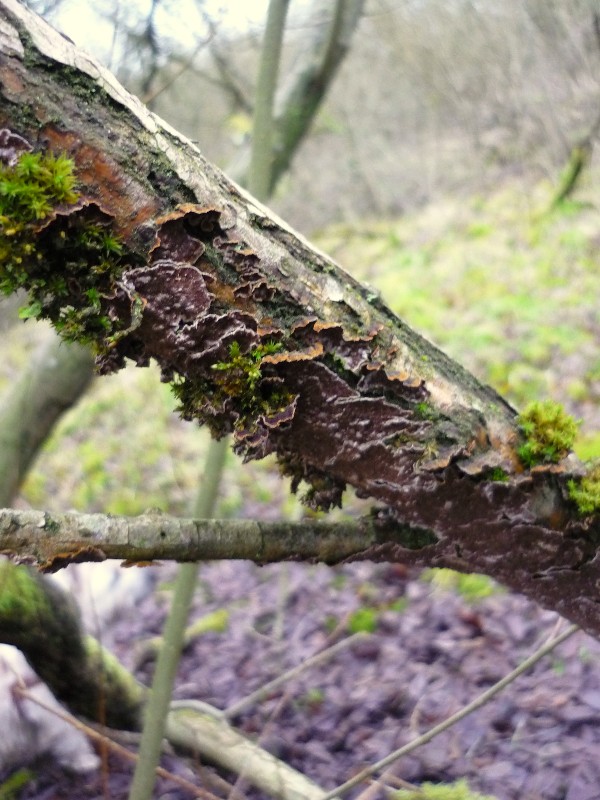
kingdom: Fungi
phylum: Basidiomycota
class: Agaricomycetes
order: Hymenochaetales
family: Hymenochaetaceae
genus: Hydnoporia
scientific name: Hydnoporia tabacina
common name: tobaksbrun ruslædersvamp
